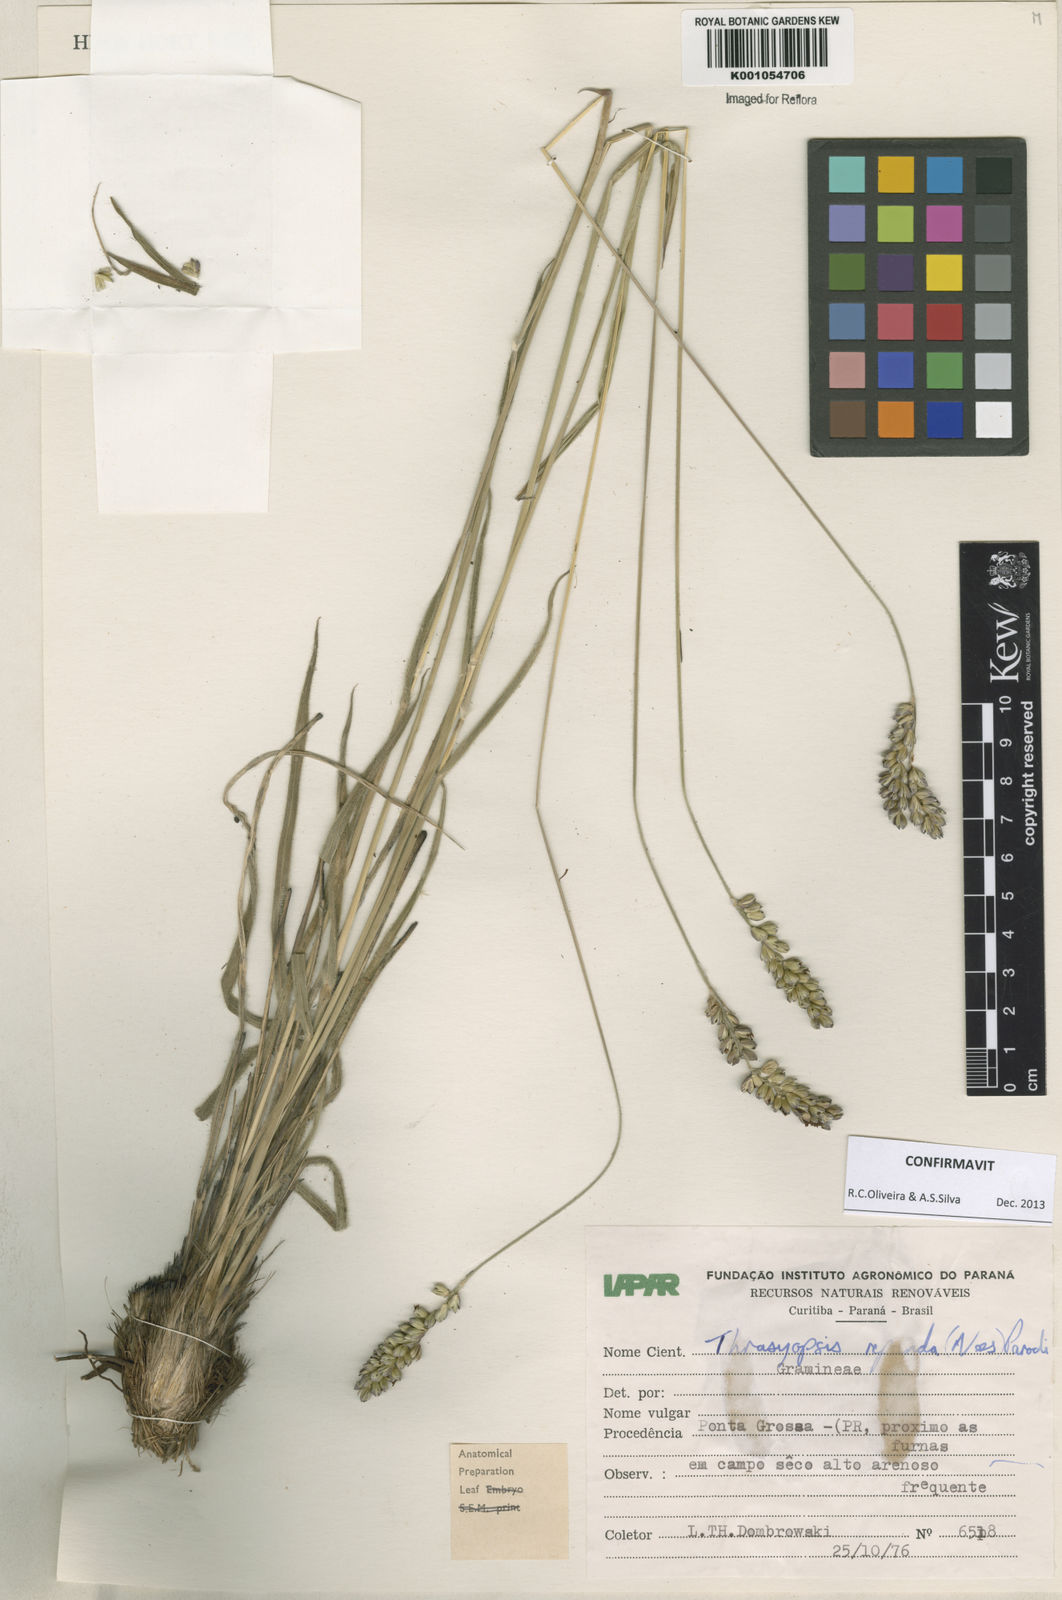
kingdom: Plantae
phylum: Tracheophyta
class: Liliopsida
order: Poales
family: Poaceae
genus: Paspalum
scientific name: Paspalum repandum
